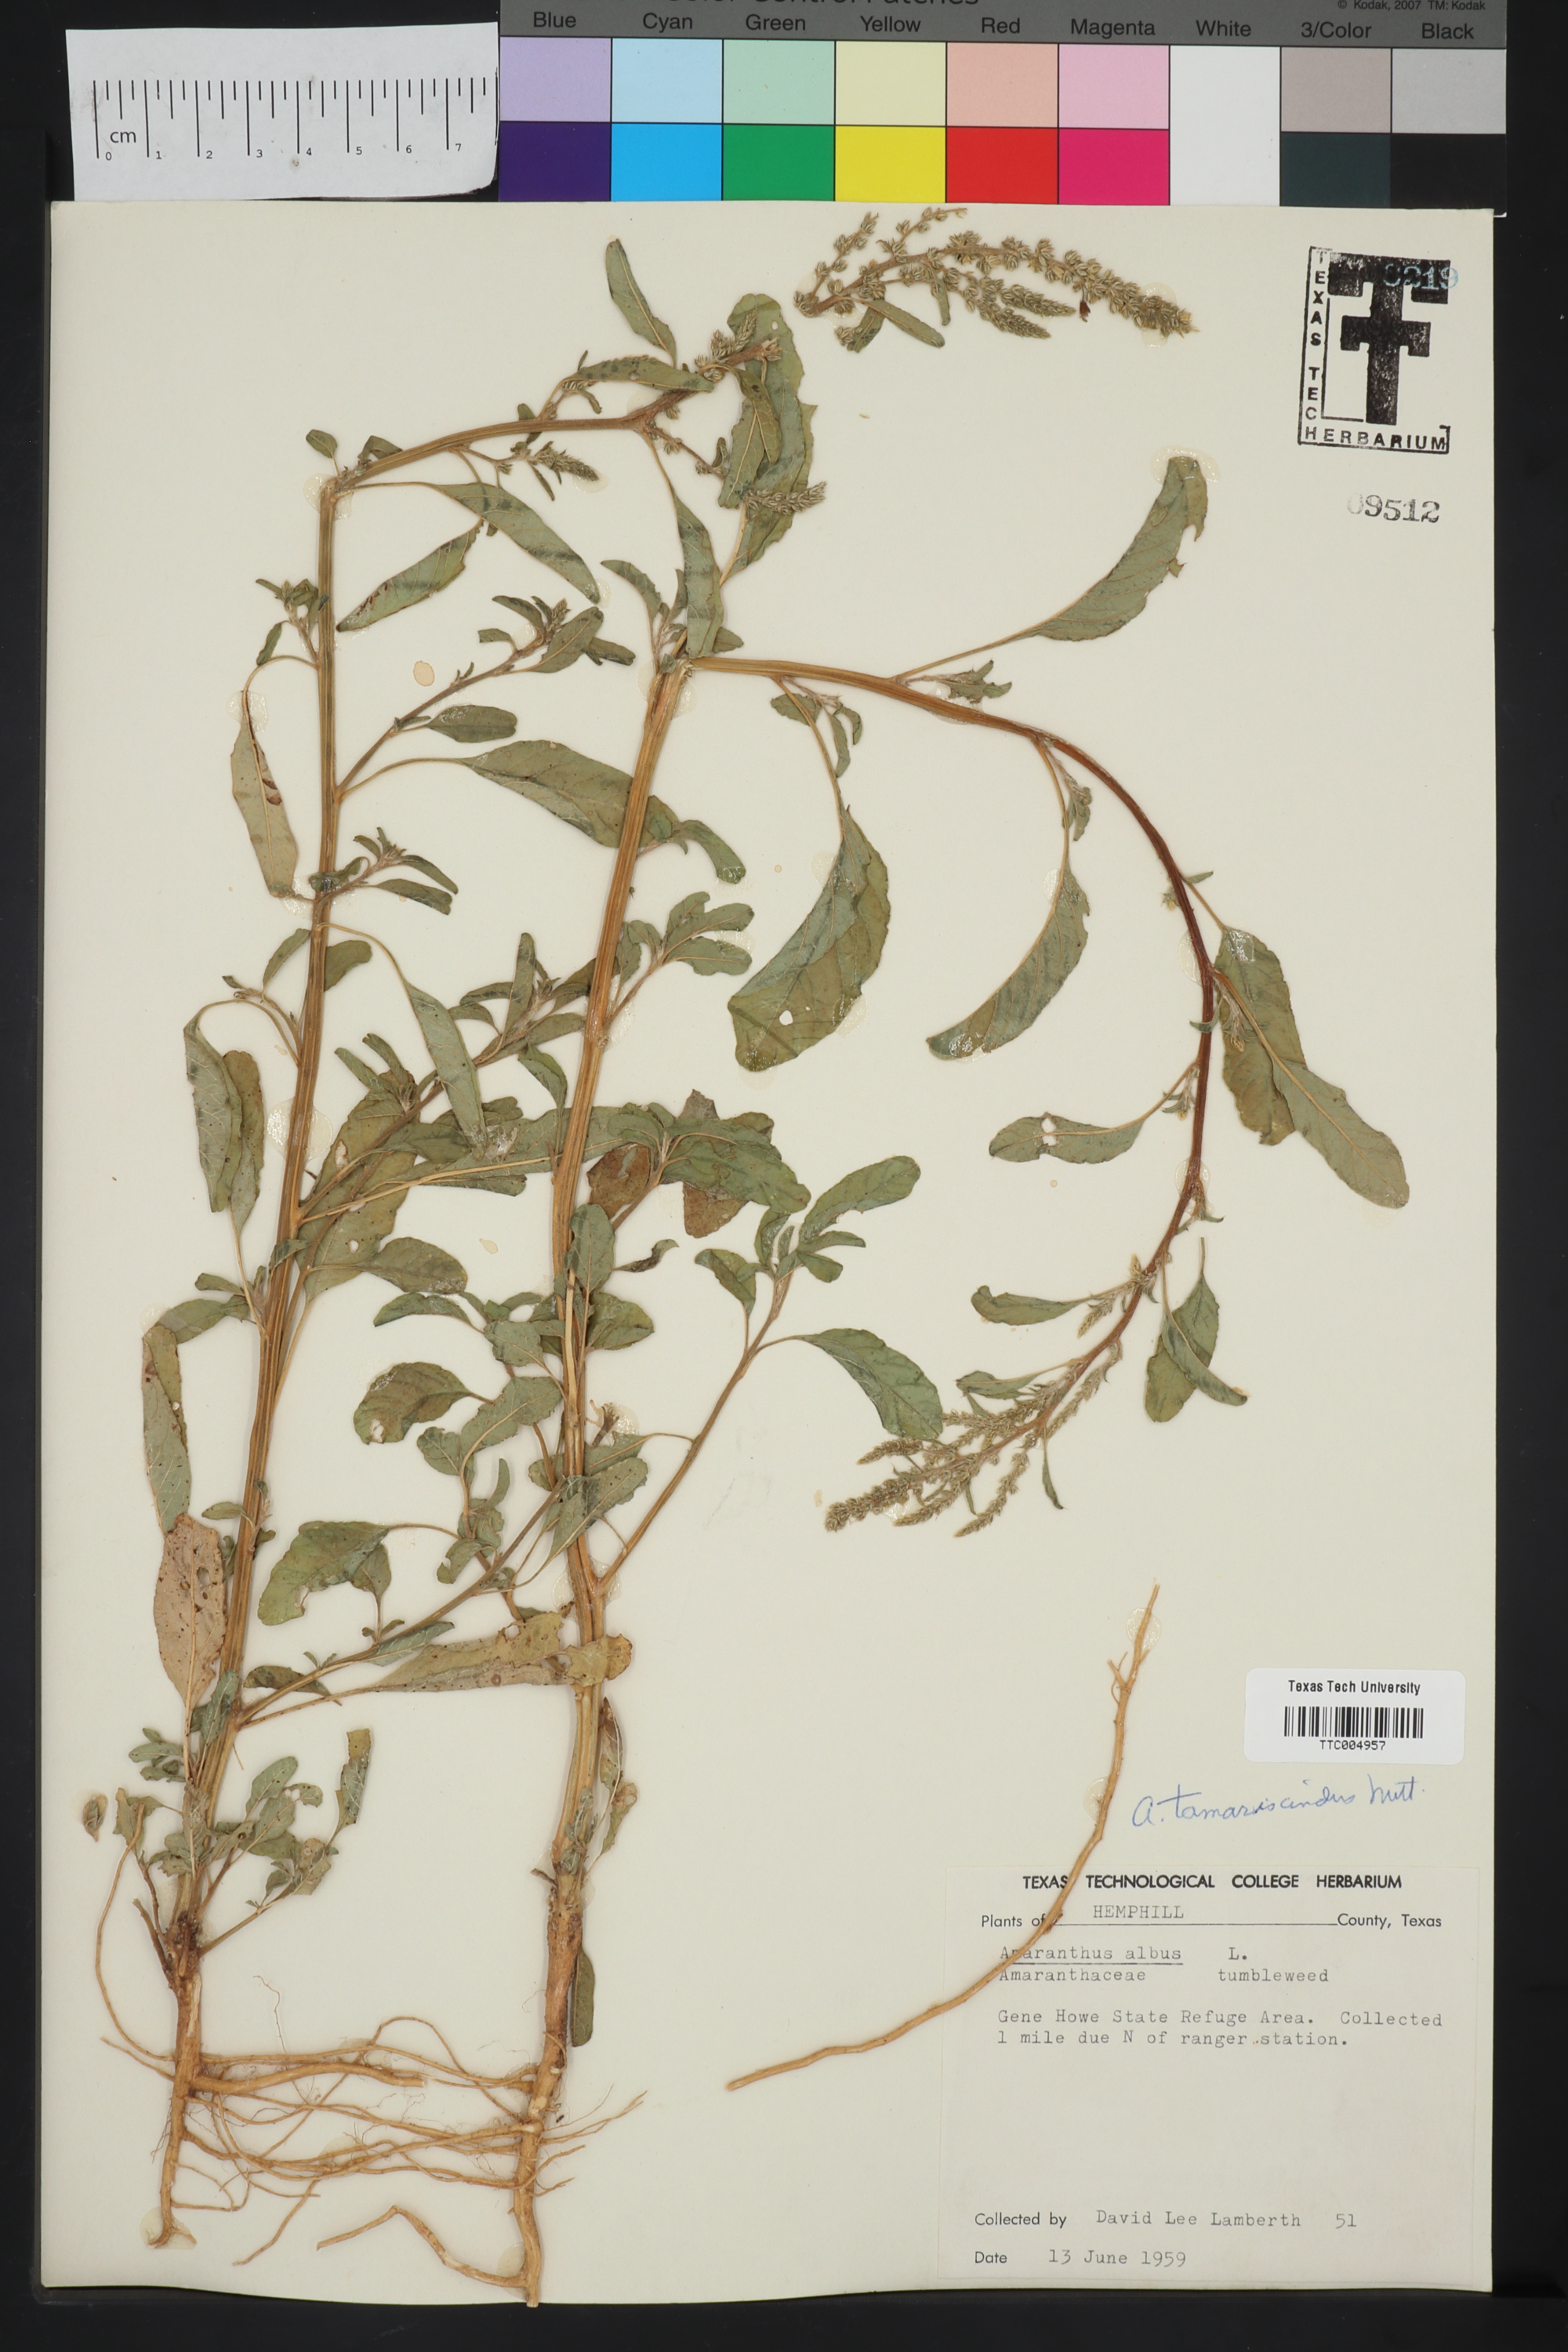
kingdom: Plantae
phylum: Tracheophyta
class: Magnoliopsida
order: Caryophyllales
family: Amaranthaceae
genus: Amaranthus
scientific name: Amaranthus albus
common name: White pigweed
